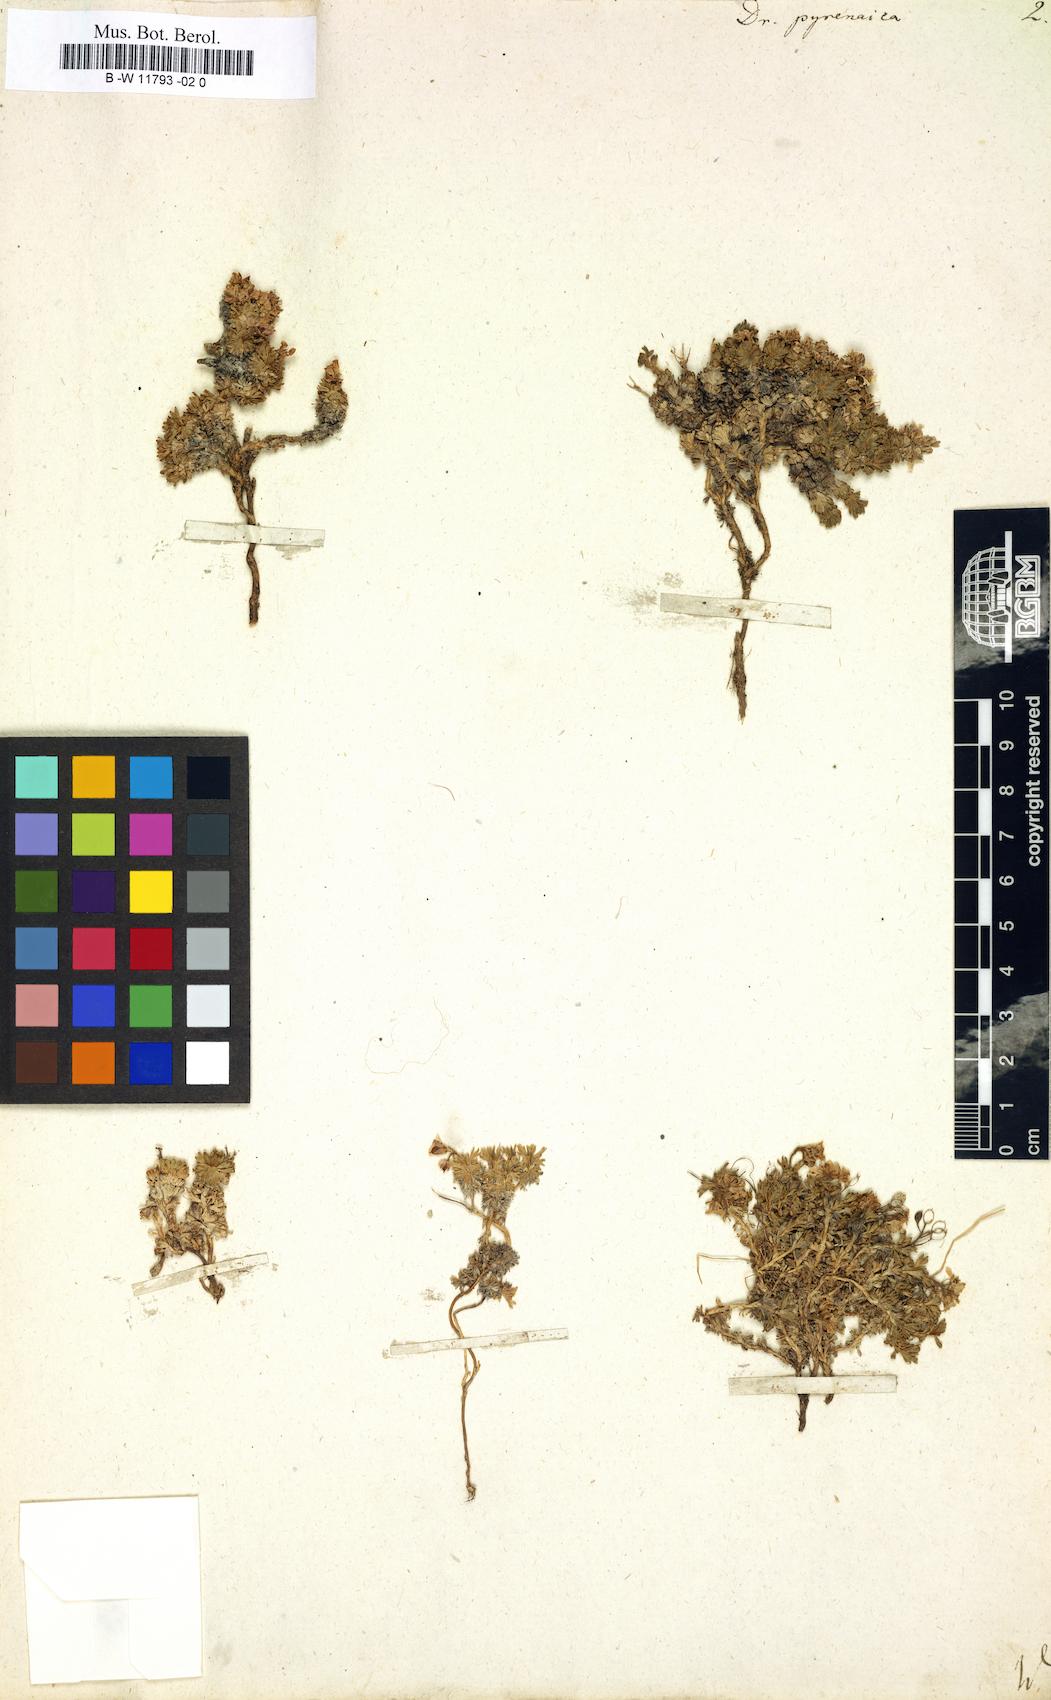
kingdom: Plantae
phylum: Tracheophyta
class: Magnoliopsida
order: Brassicales
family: Brassicaceae
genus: Draba
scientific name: Draba pyrenaica
